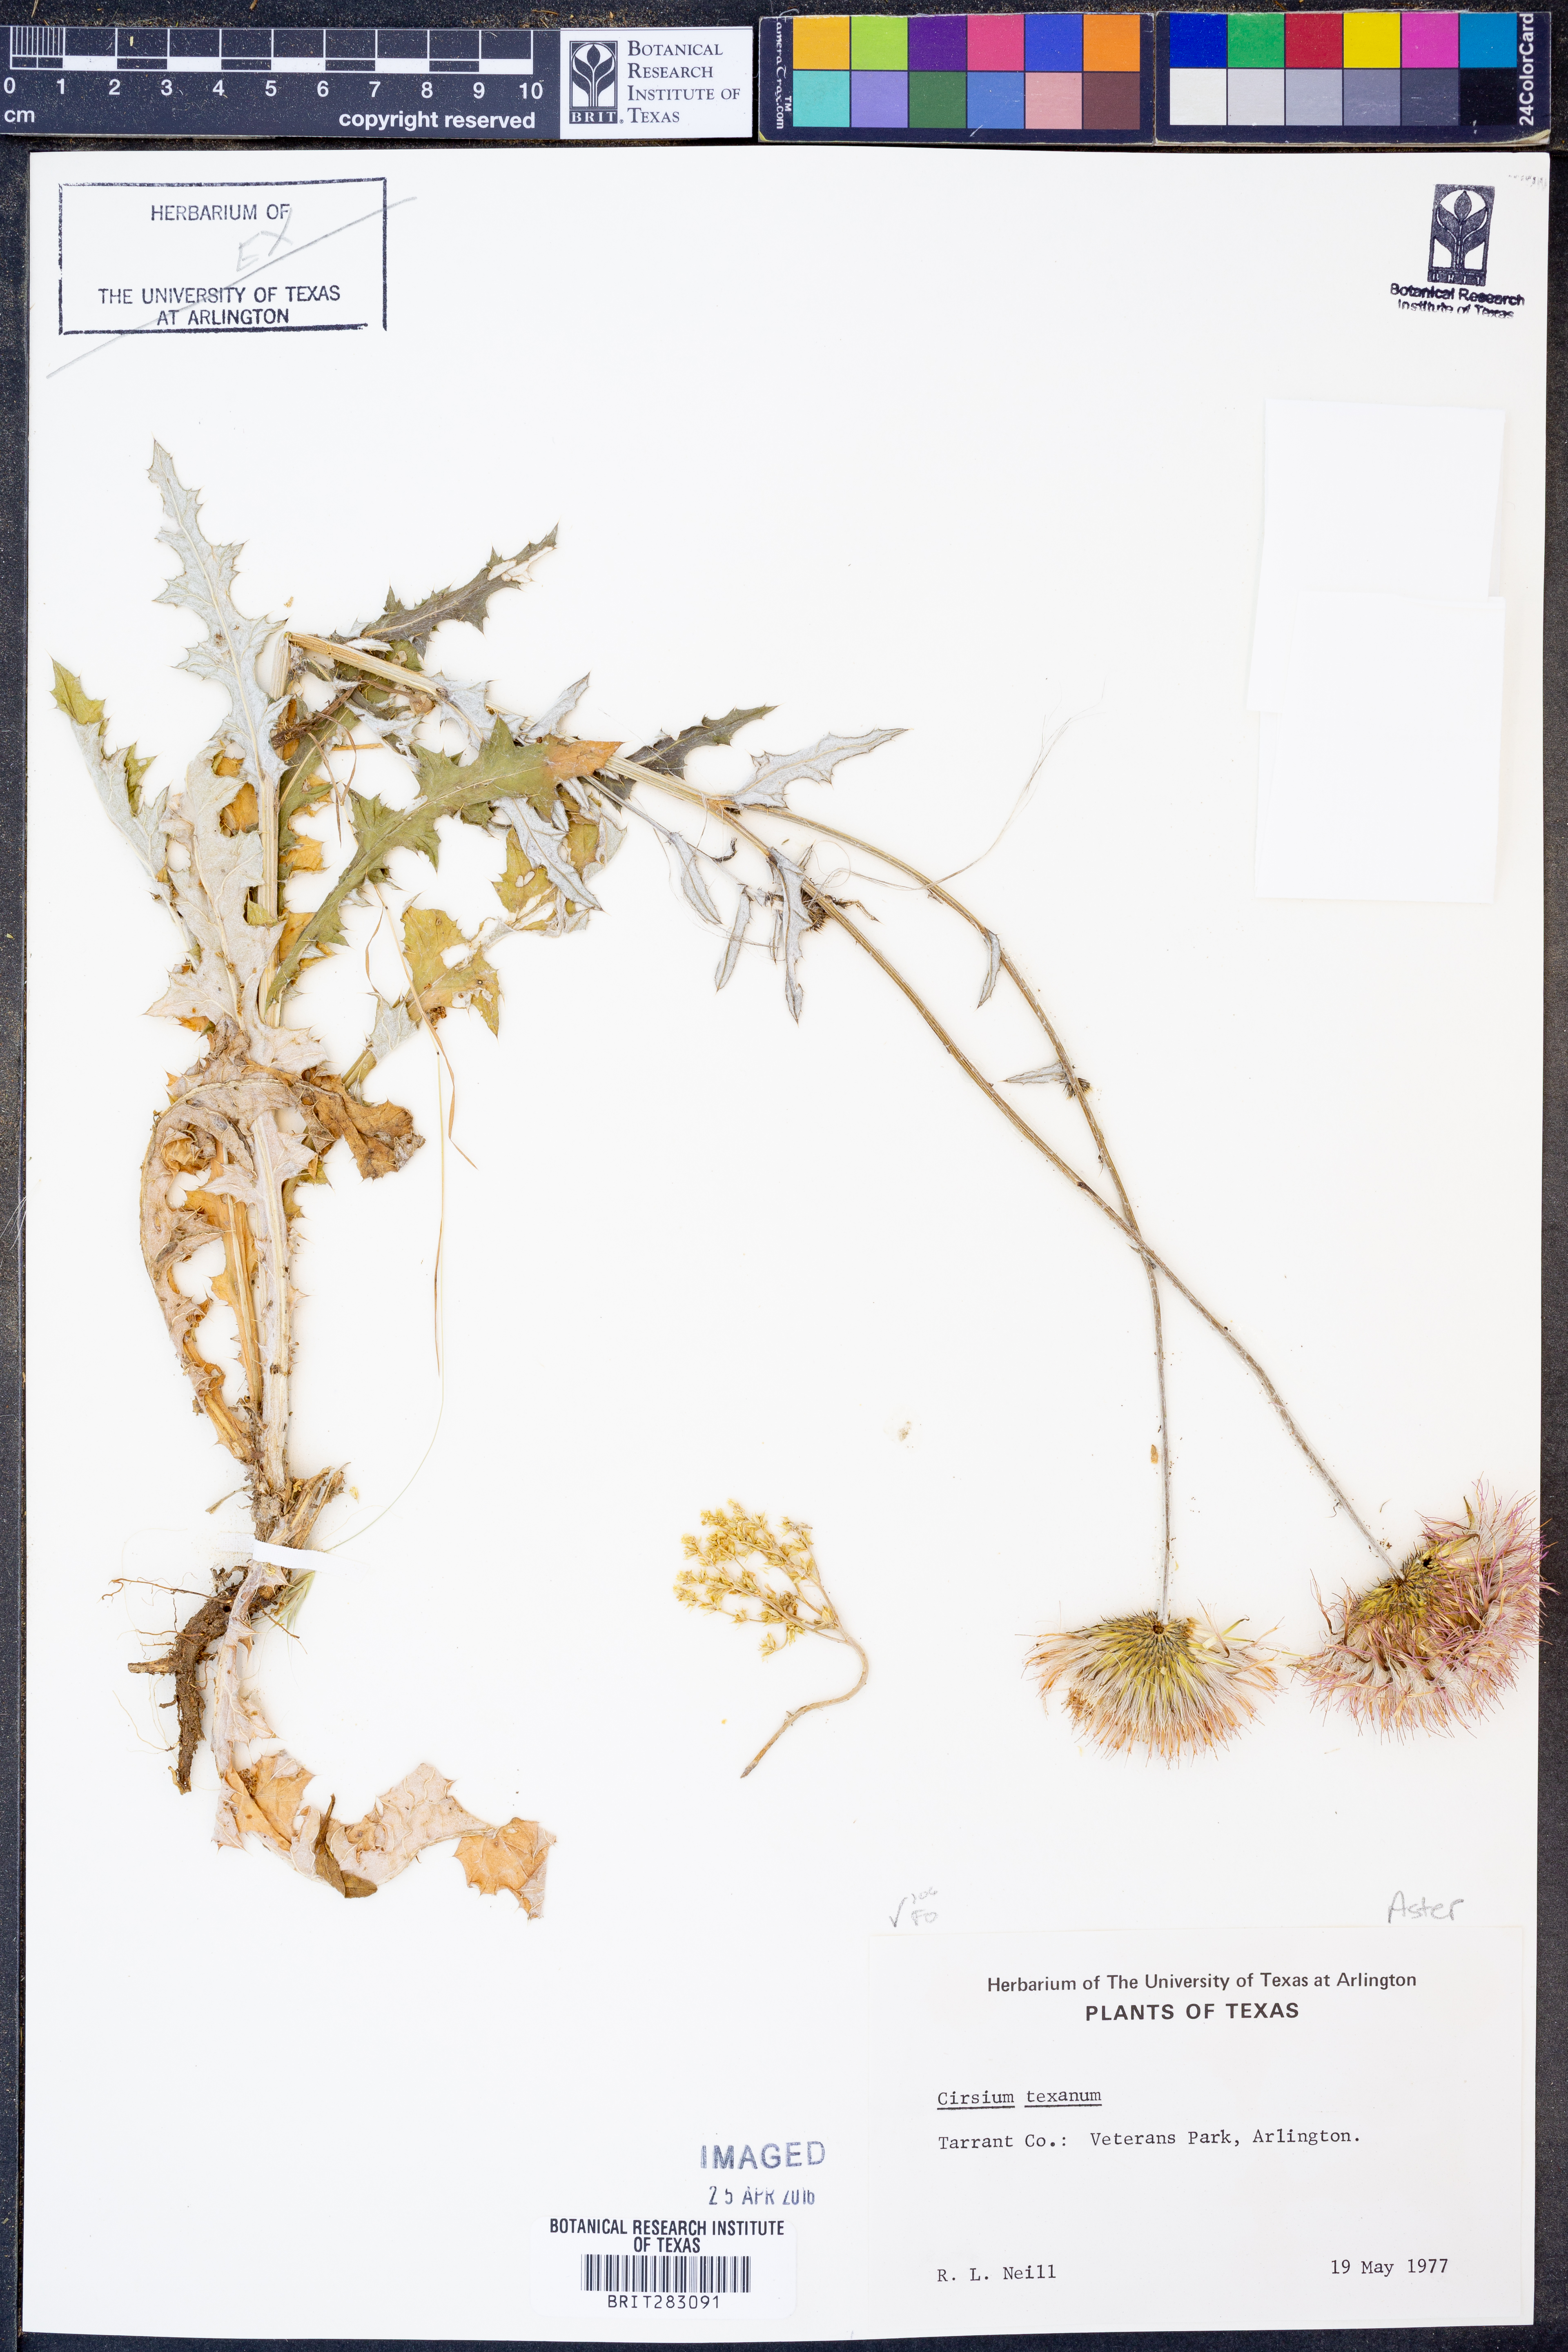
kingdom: Plantae
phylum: Tracheophyta
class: Magnoliopsida
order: Asterales
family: Asteraceae
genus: Cirsium
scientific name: Cirsium texanum
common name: Texas purple thistle
